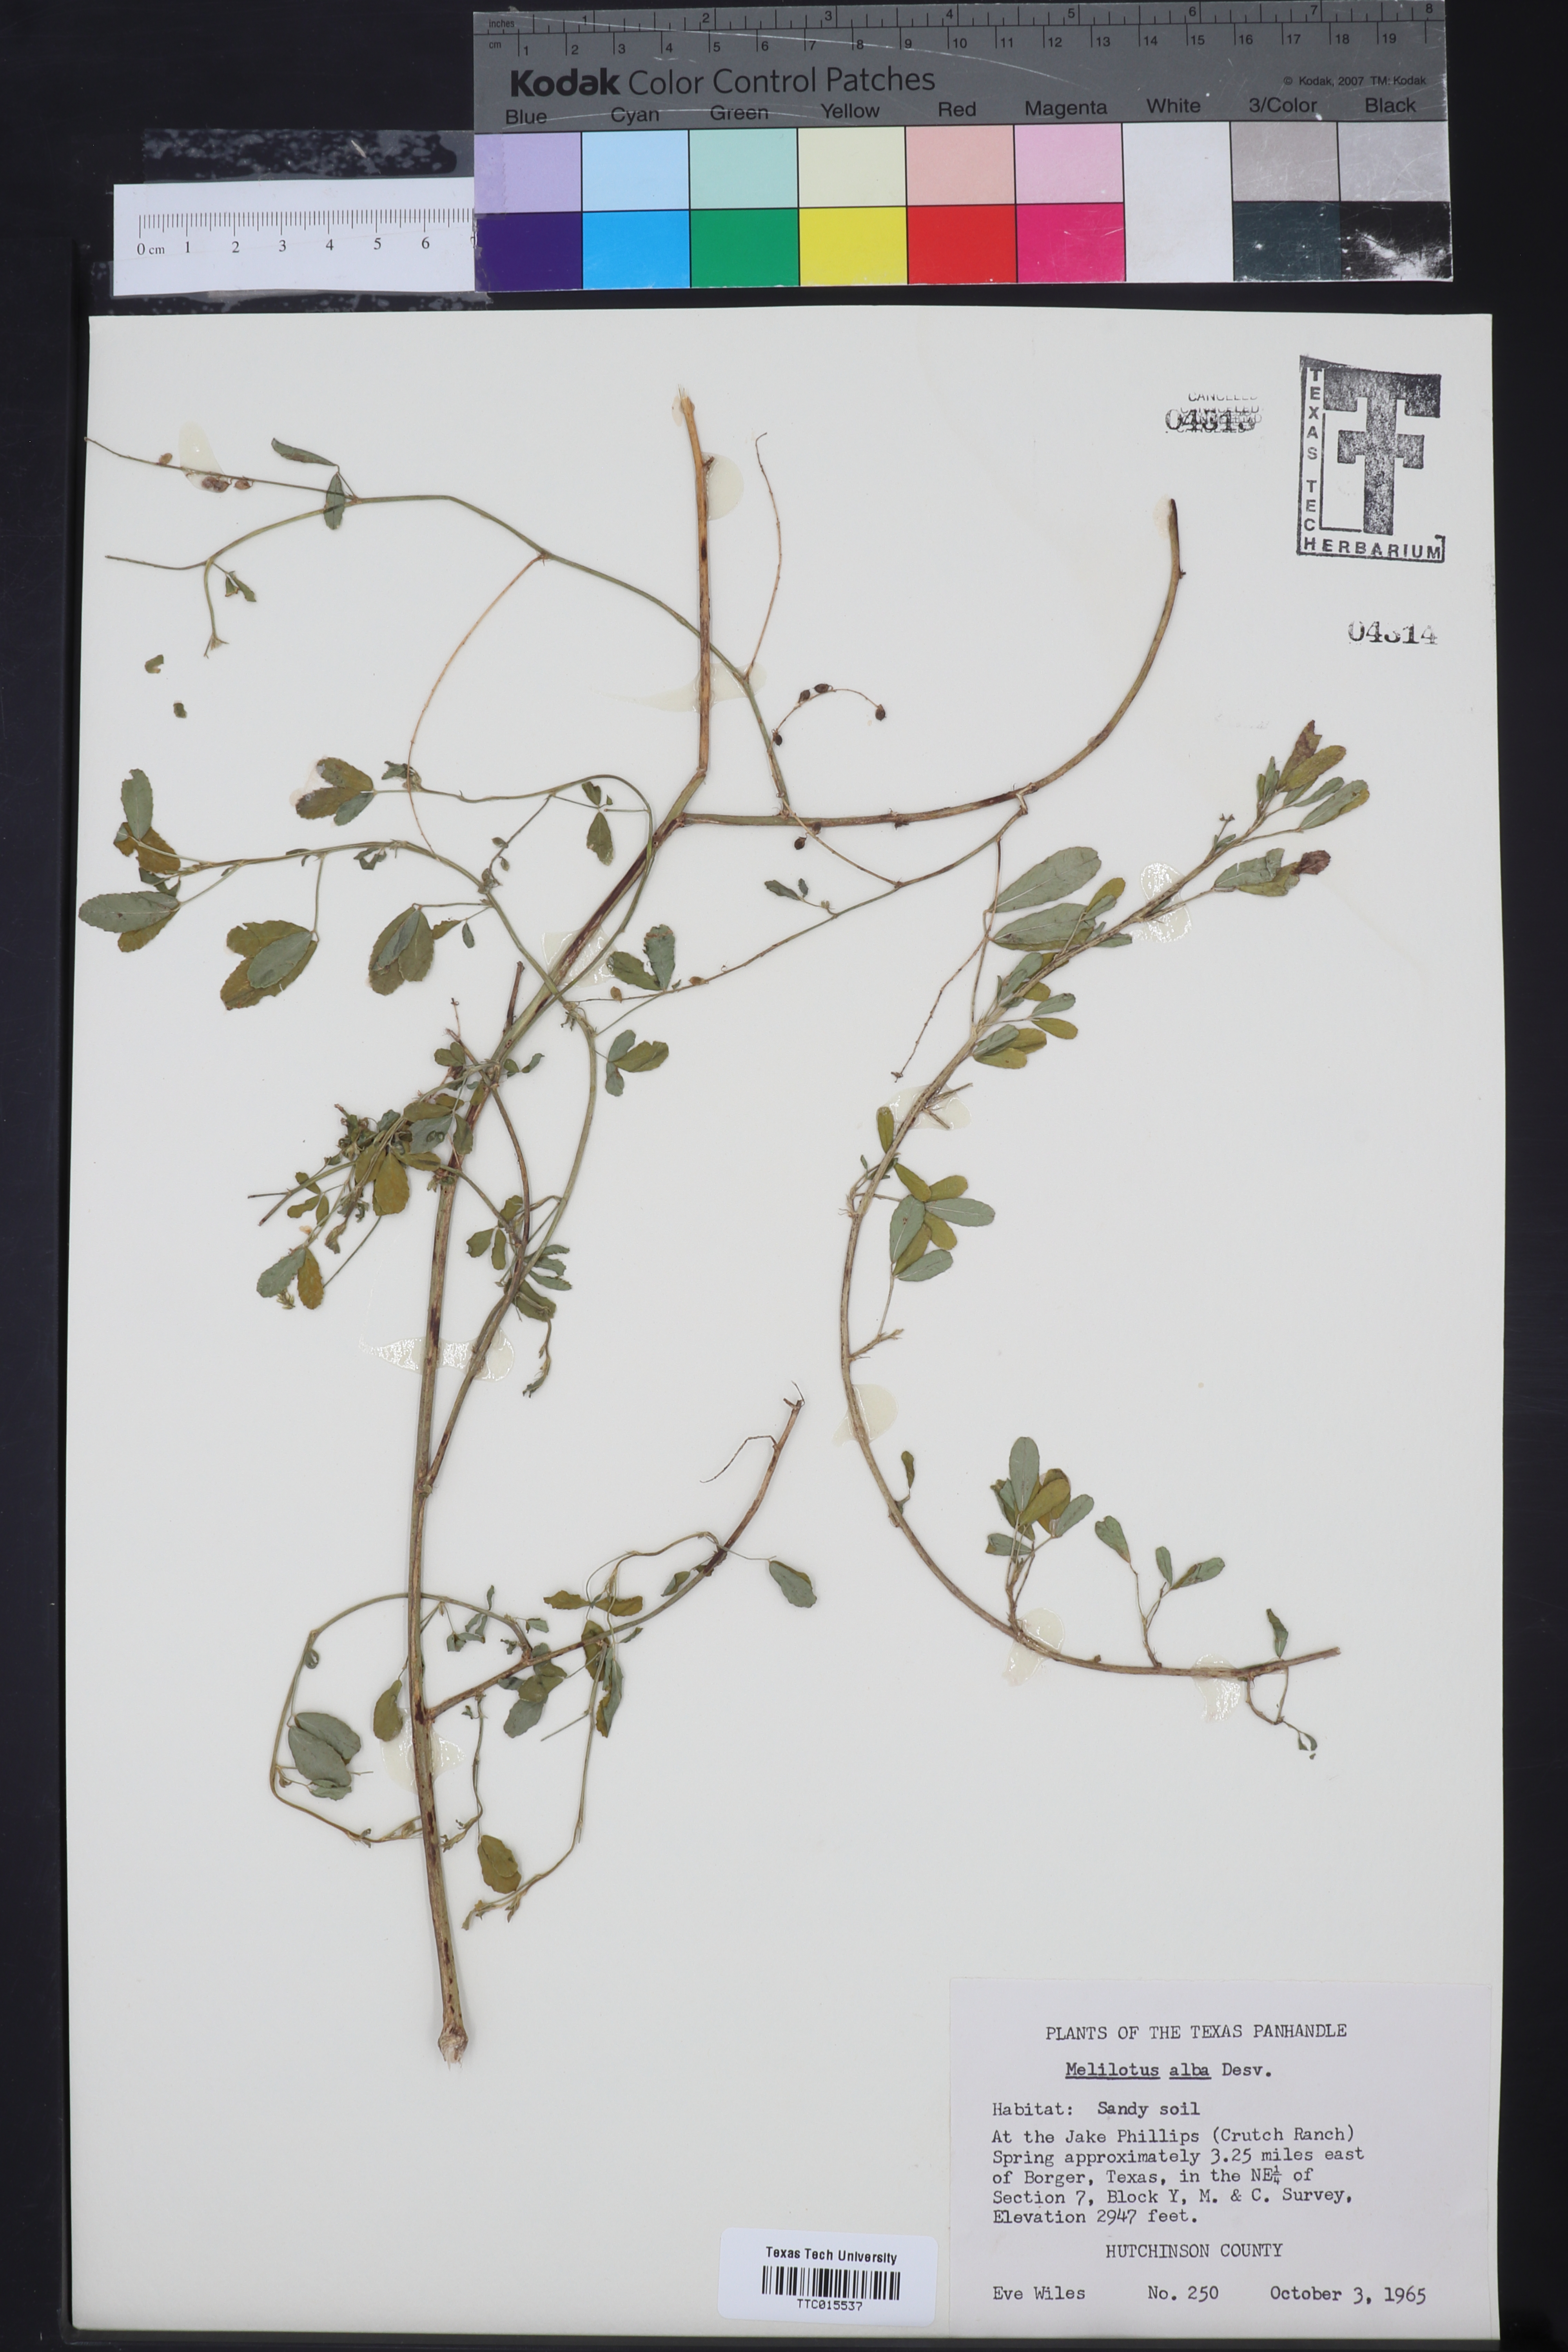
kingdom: Plantae
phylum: Tracheophyta
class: Magnoliopsida
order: Fabales
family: Fabaceae
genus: Melilotus
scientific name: Melilotus albus
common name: White melilot
